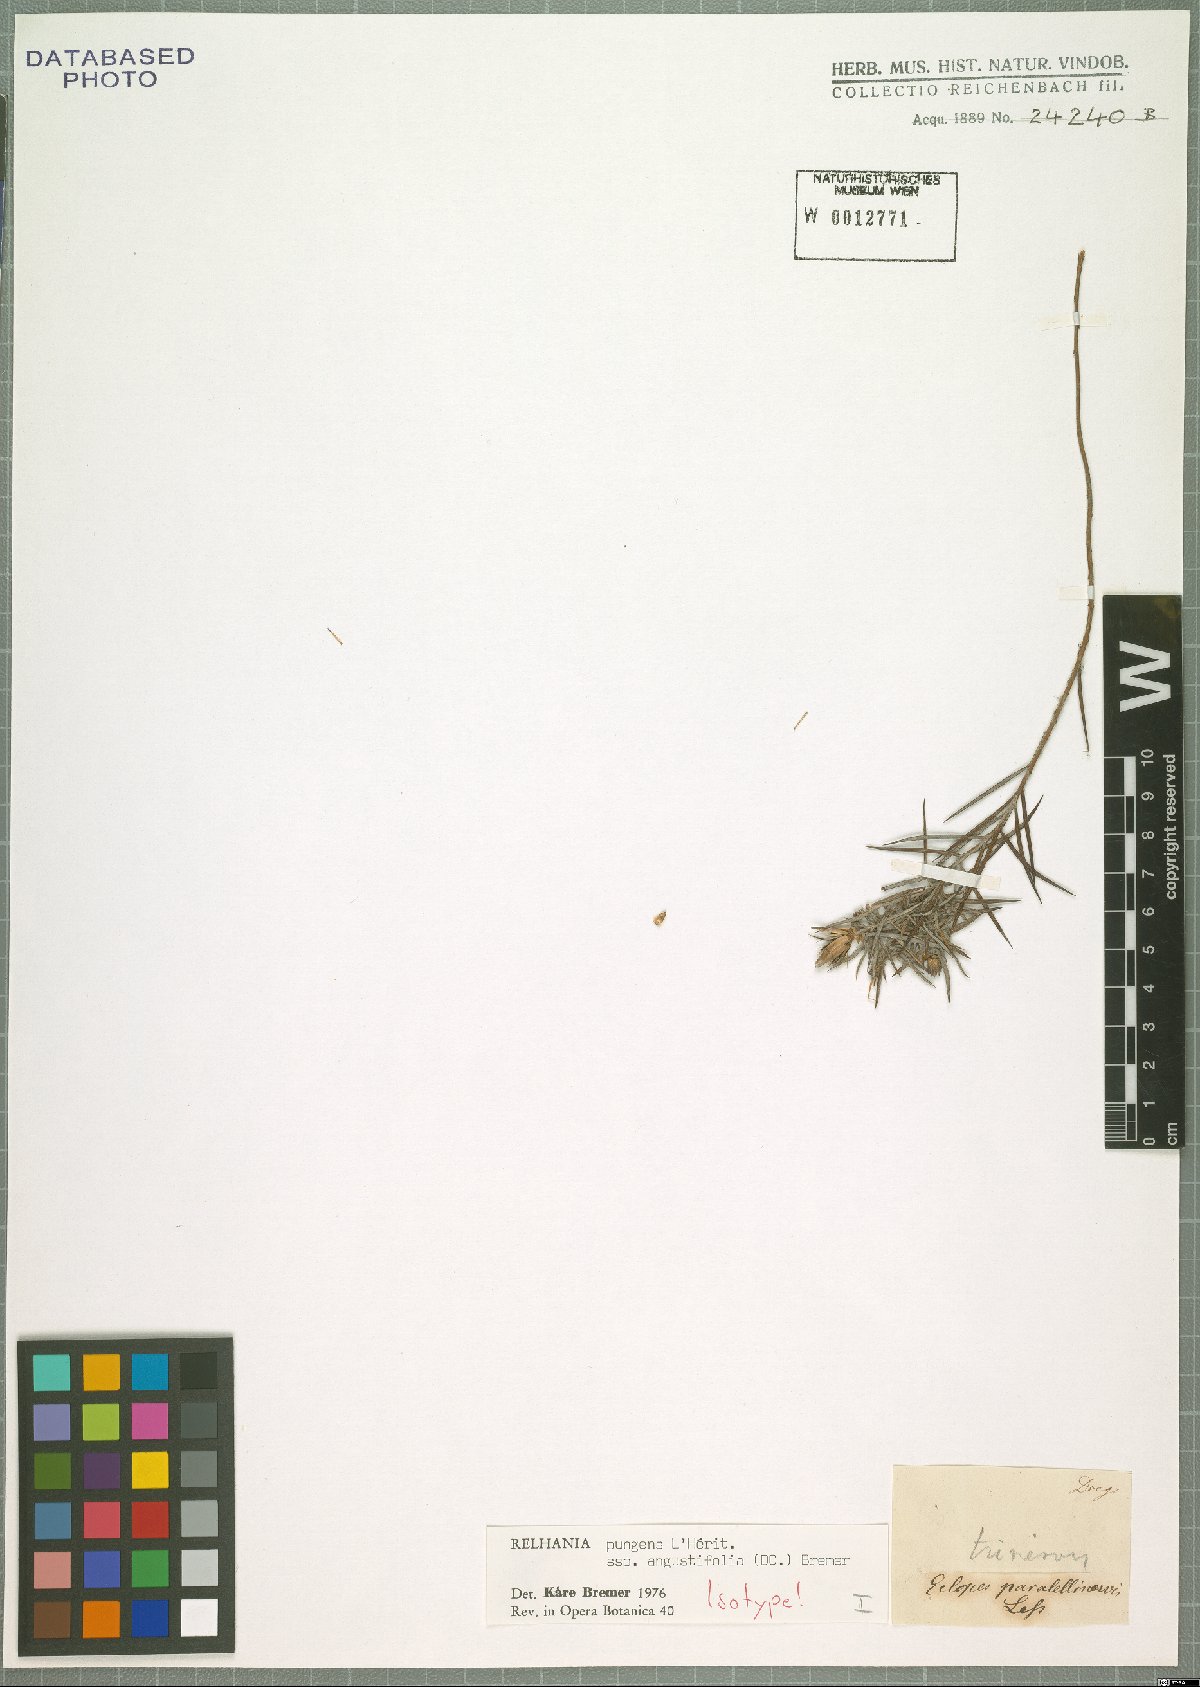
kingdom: Plantae
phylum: Tracheophyta
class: Magnoliopsida
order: Asterales
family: Asteraceae
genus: Oedera
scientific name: Oedera pungens
